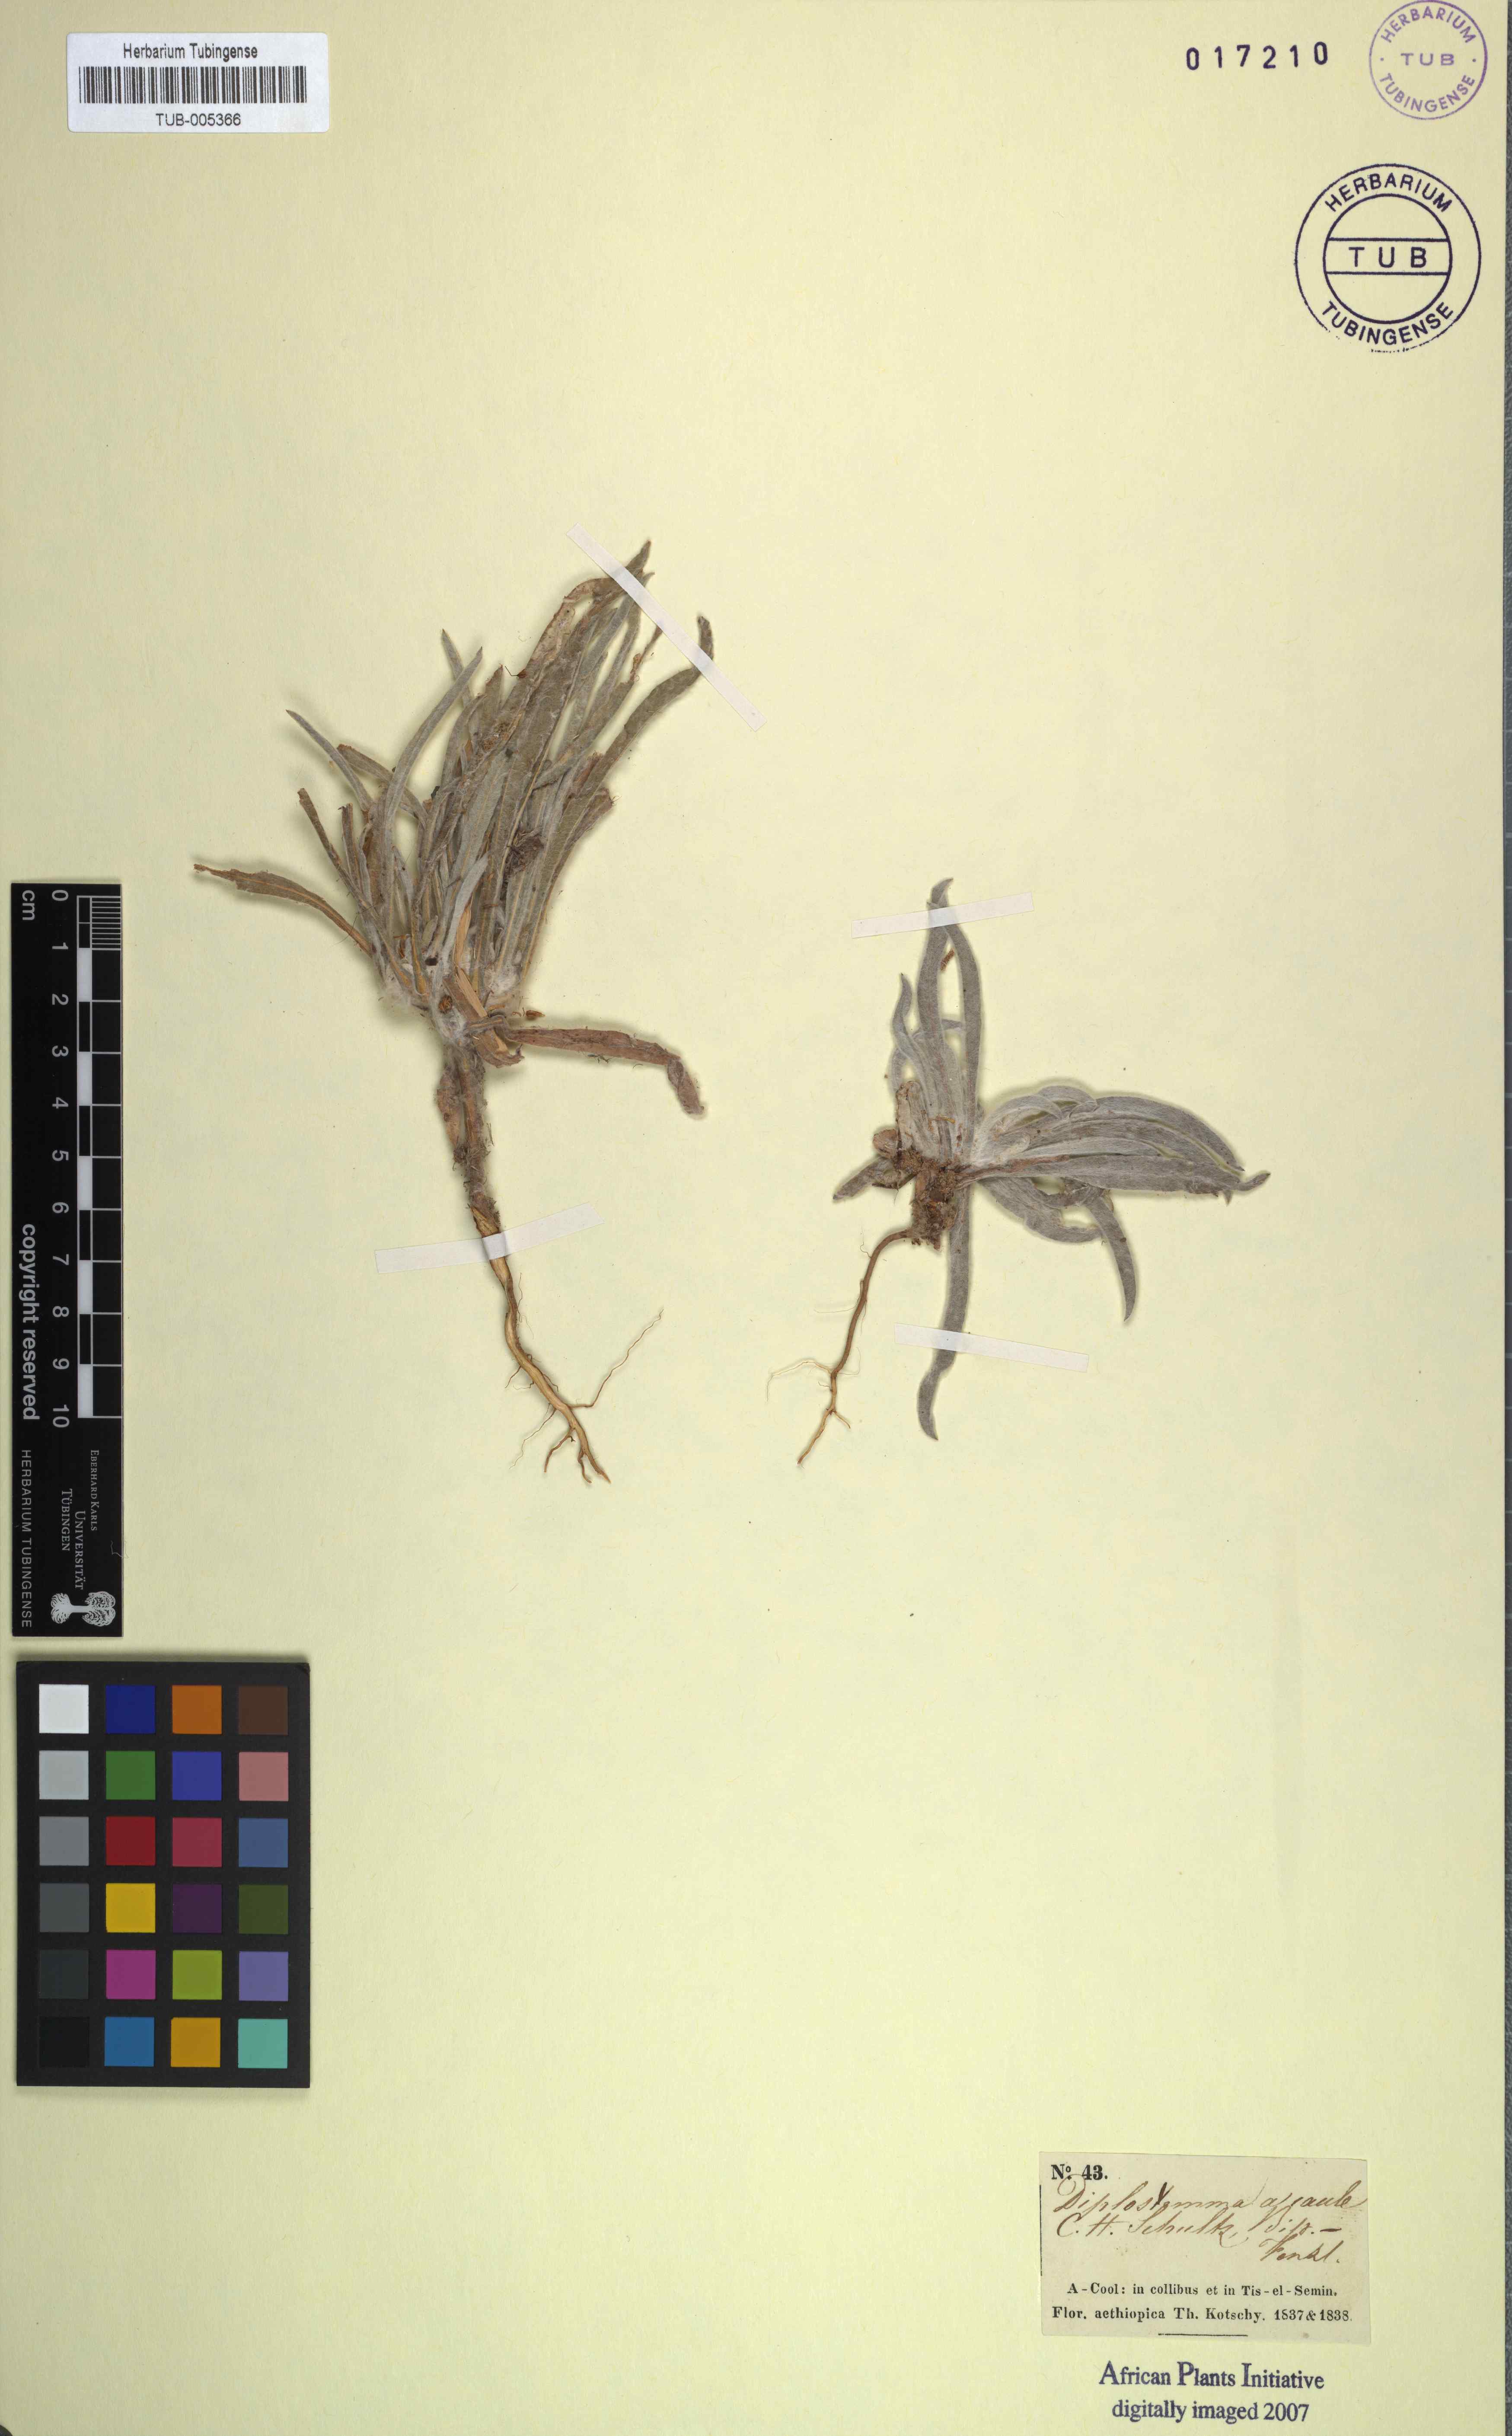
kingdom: Plantae
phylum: Tracheophyta
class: Magnoliopsida
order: Asterales
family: Asteraceae
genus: Geigeria
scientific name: Geigeria acaulis
